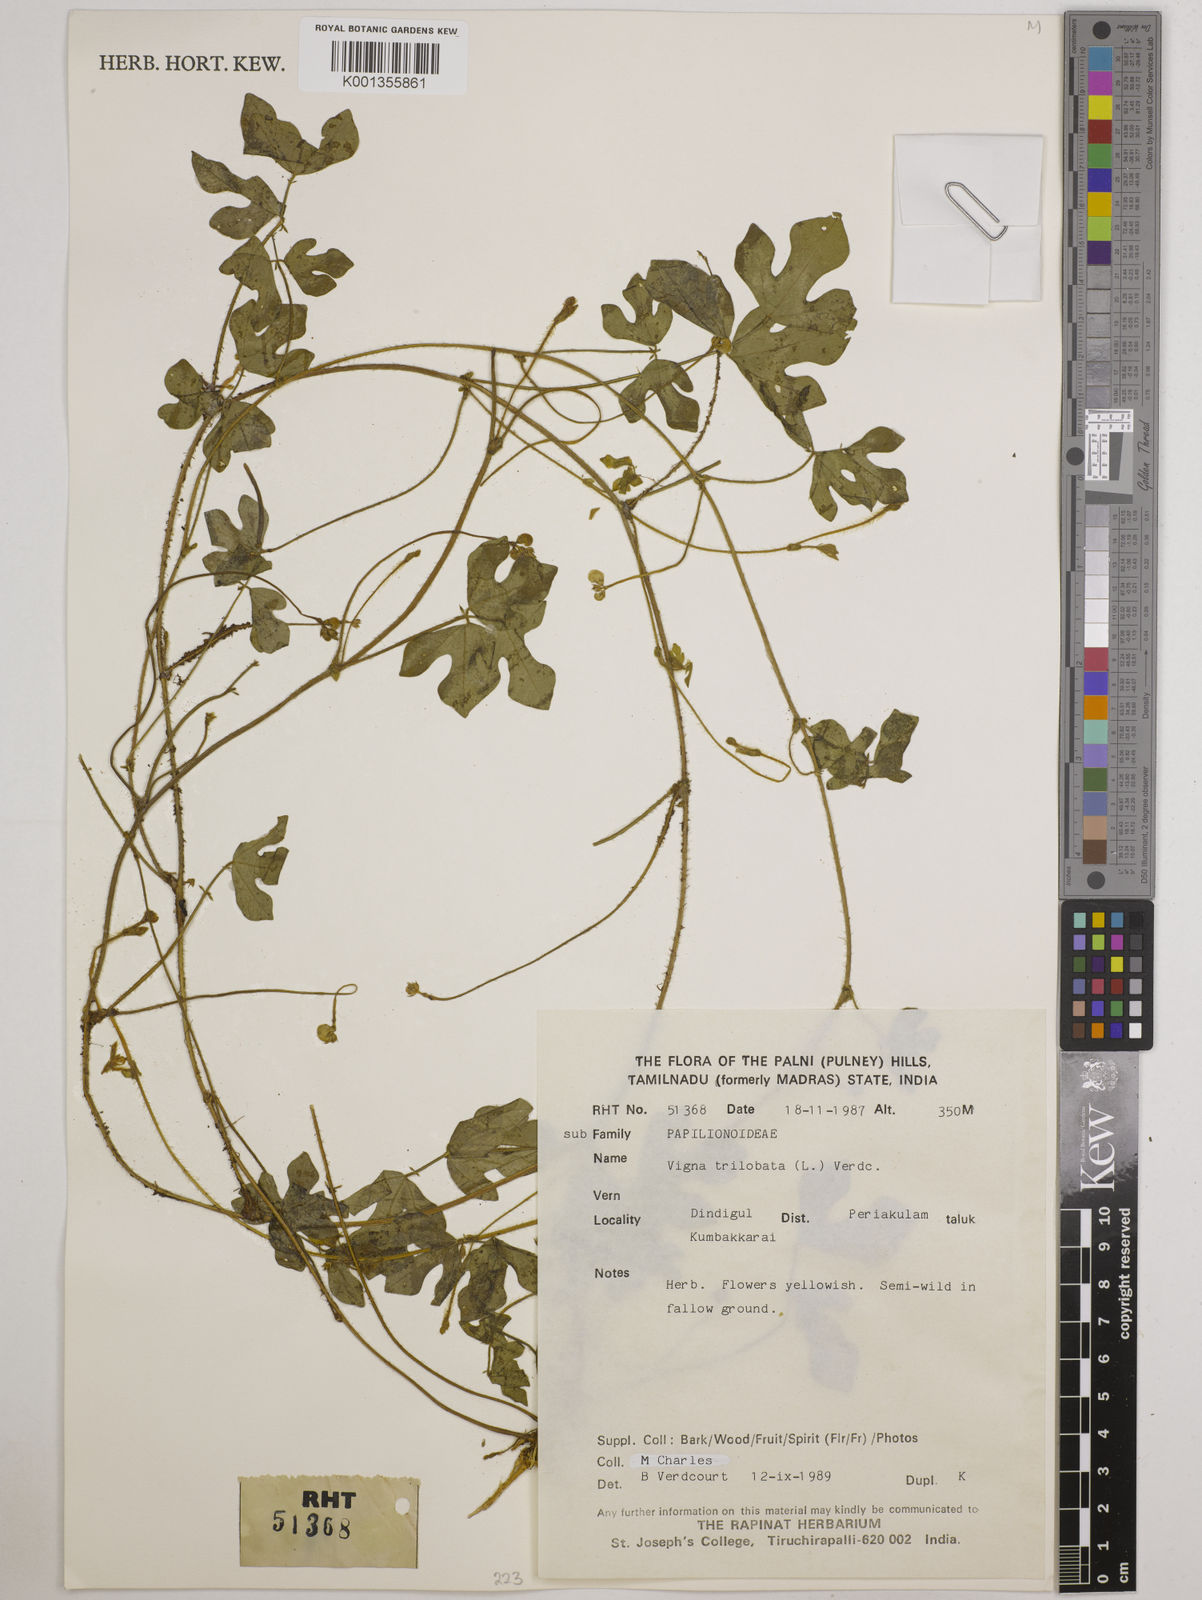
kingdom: Plantae
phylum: Tracheophyta
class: Magnoliopsida
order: Fabales
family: Fabaceae
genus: Vigna
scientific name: Vigna trilobata
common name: Jungli-bean
